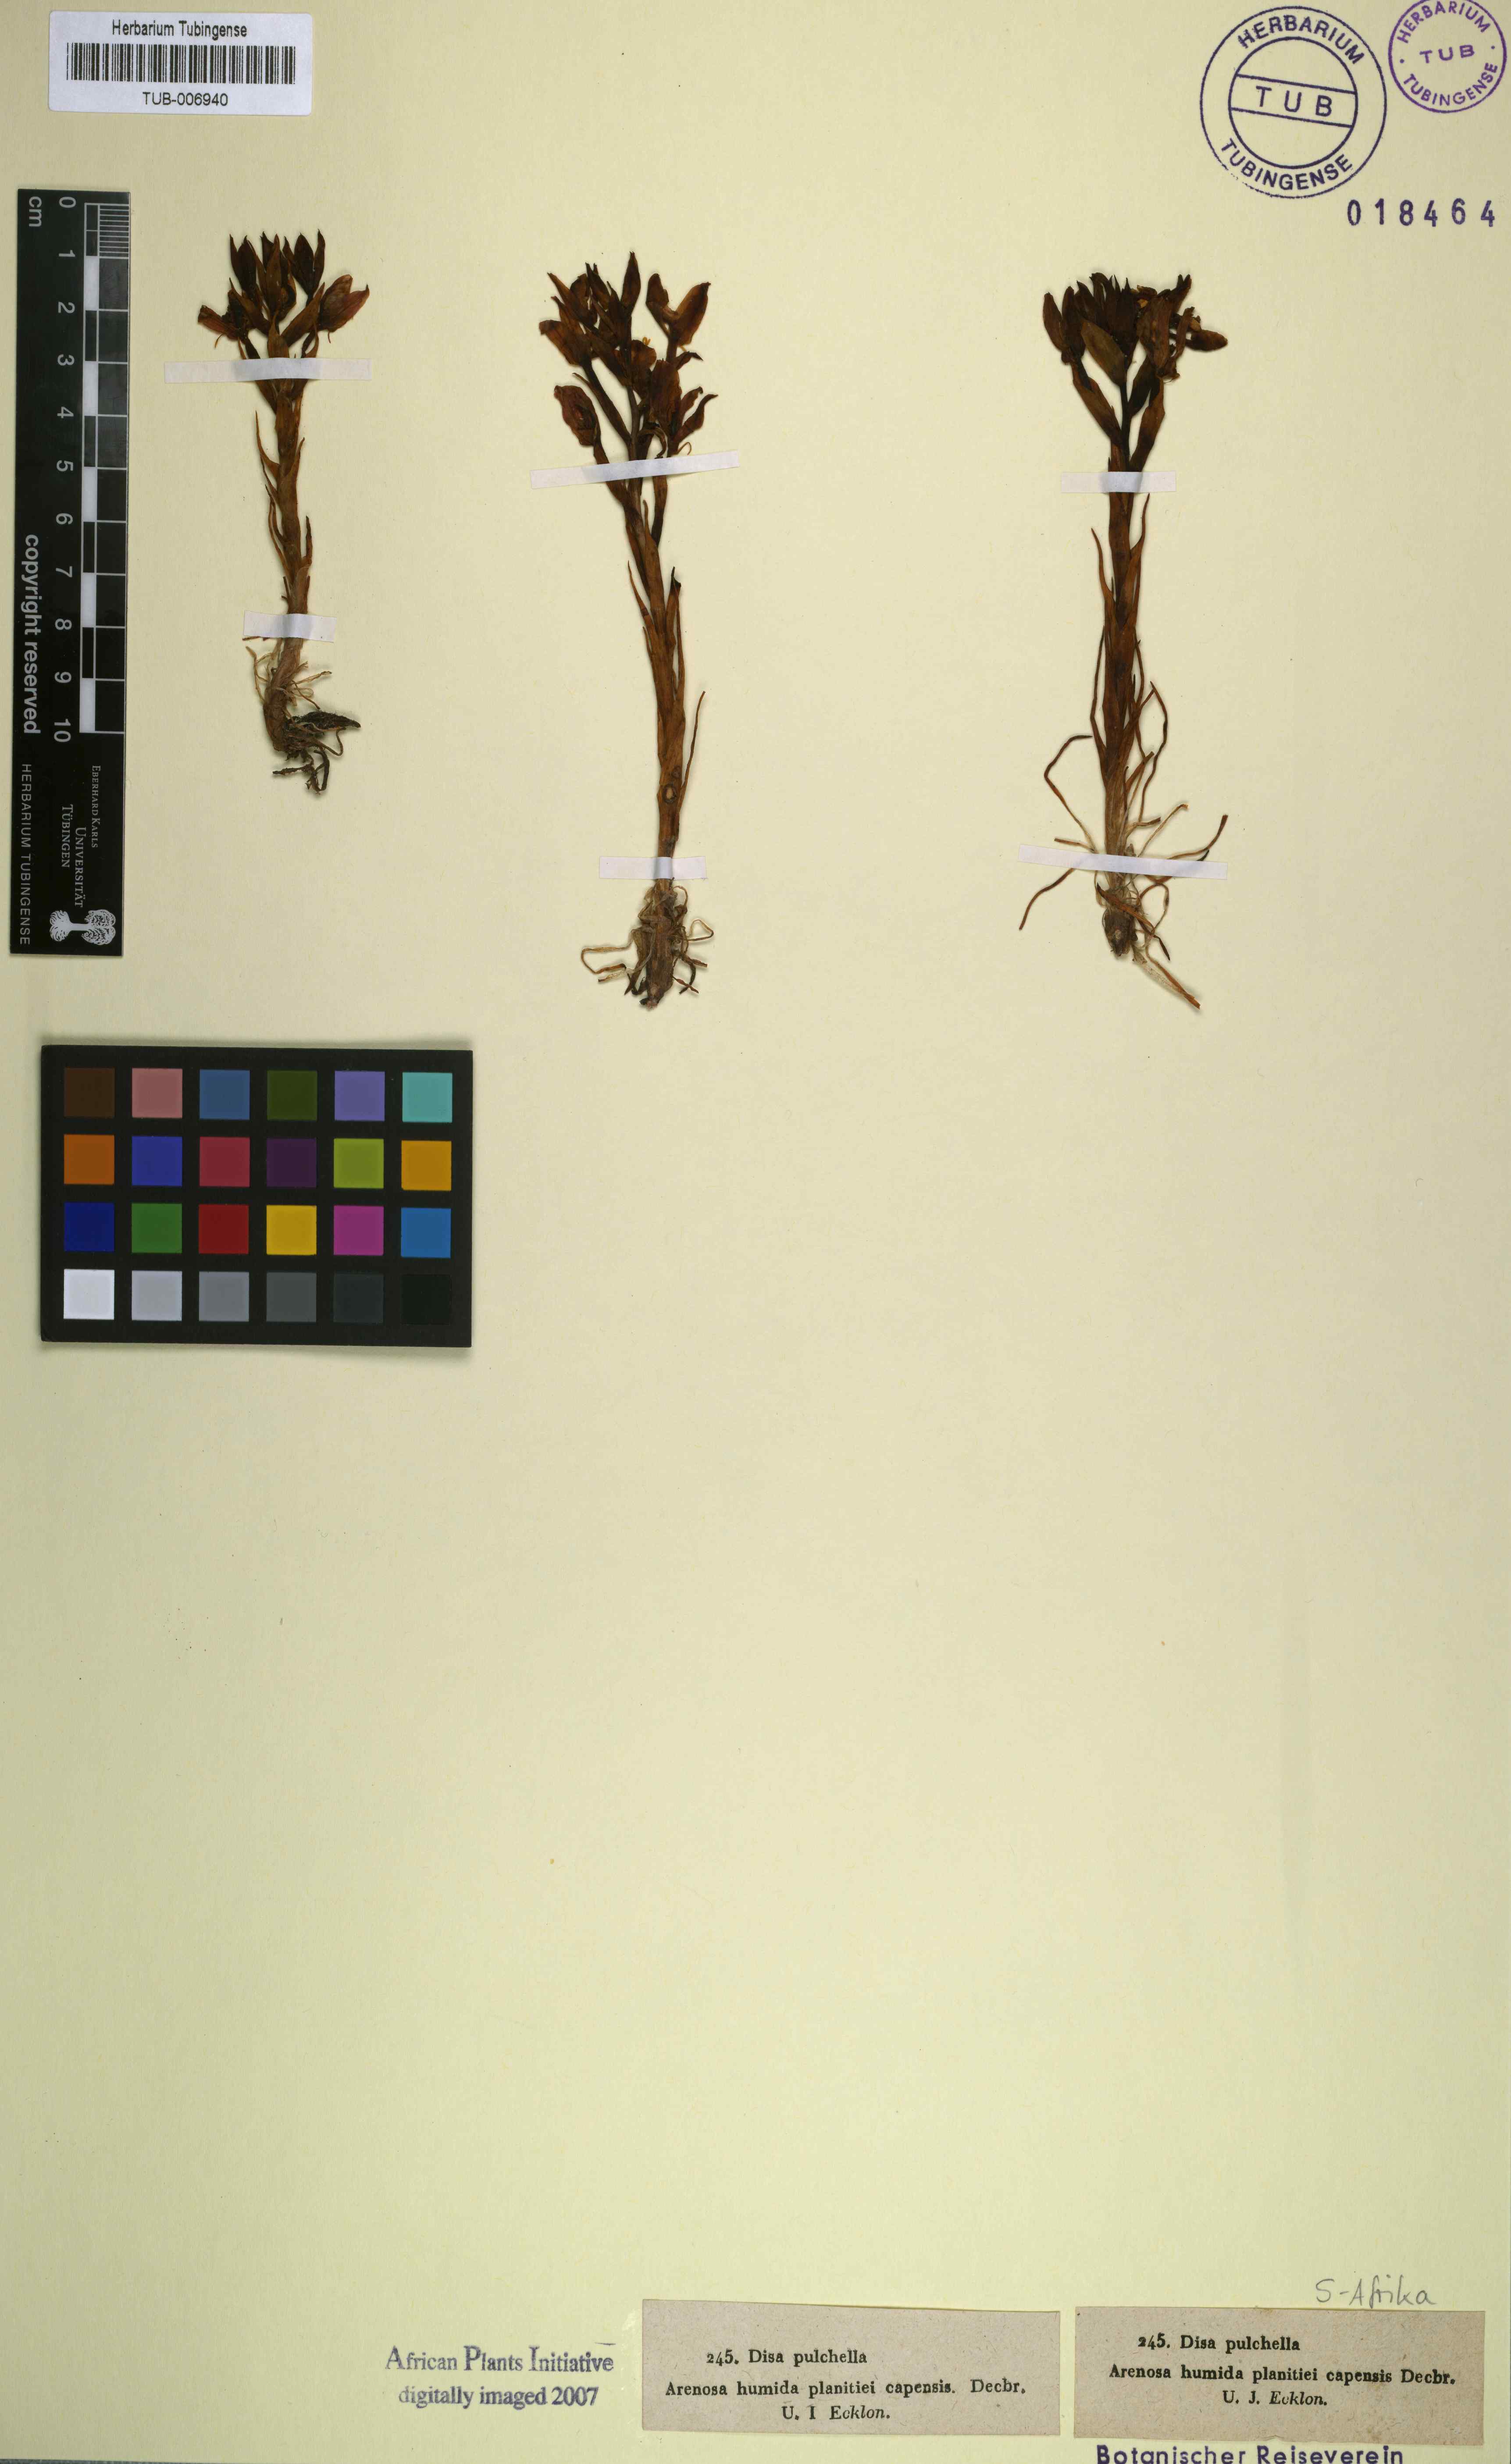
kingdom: Plantae
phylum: Tracheophyta
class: Liliopsida
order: Asparagales
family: Orchidaceae
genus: Disa
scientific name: Disa pulchella
